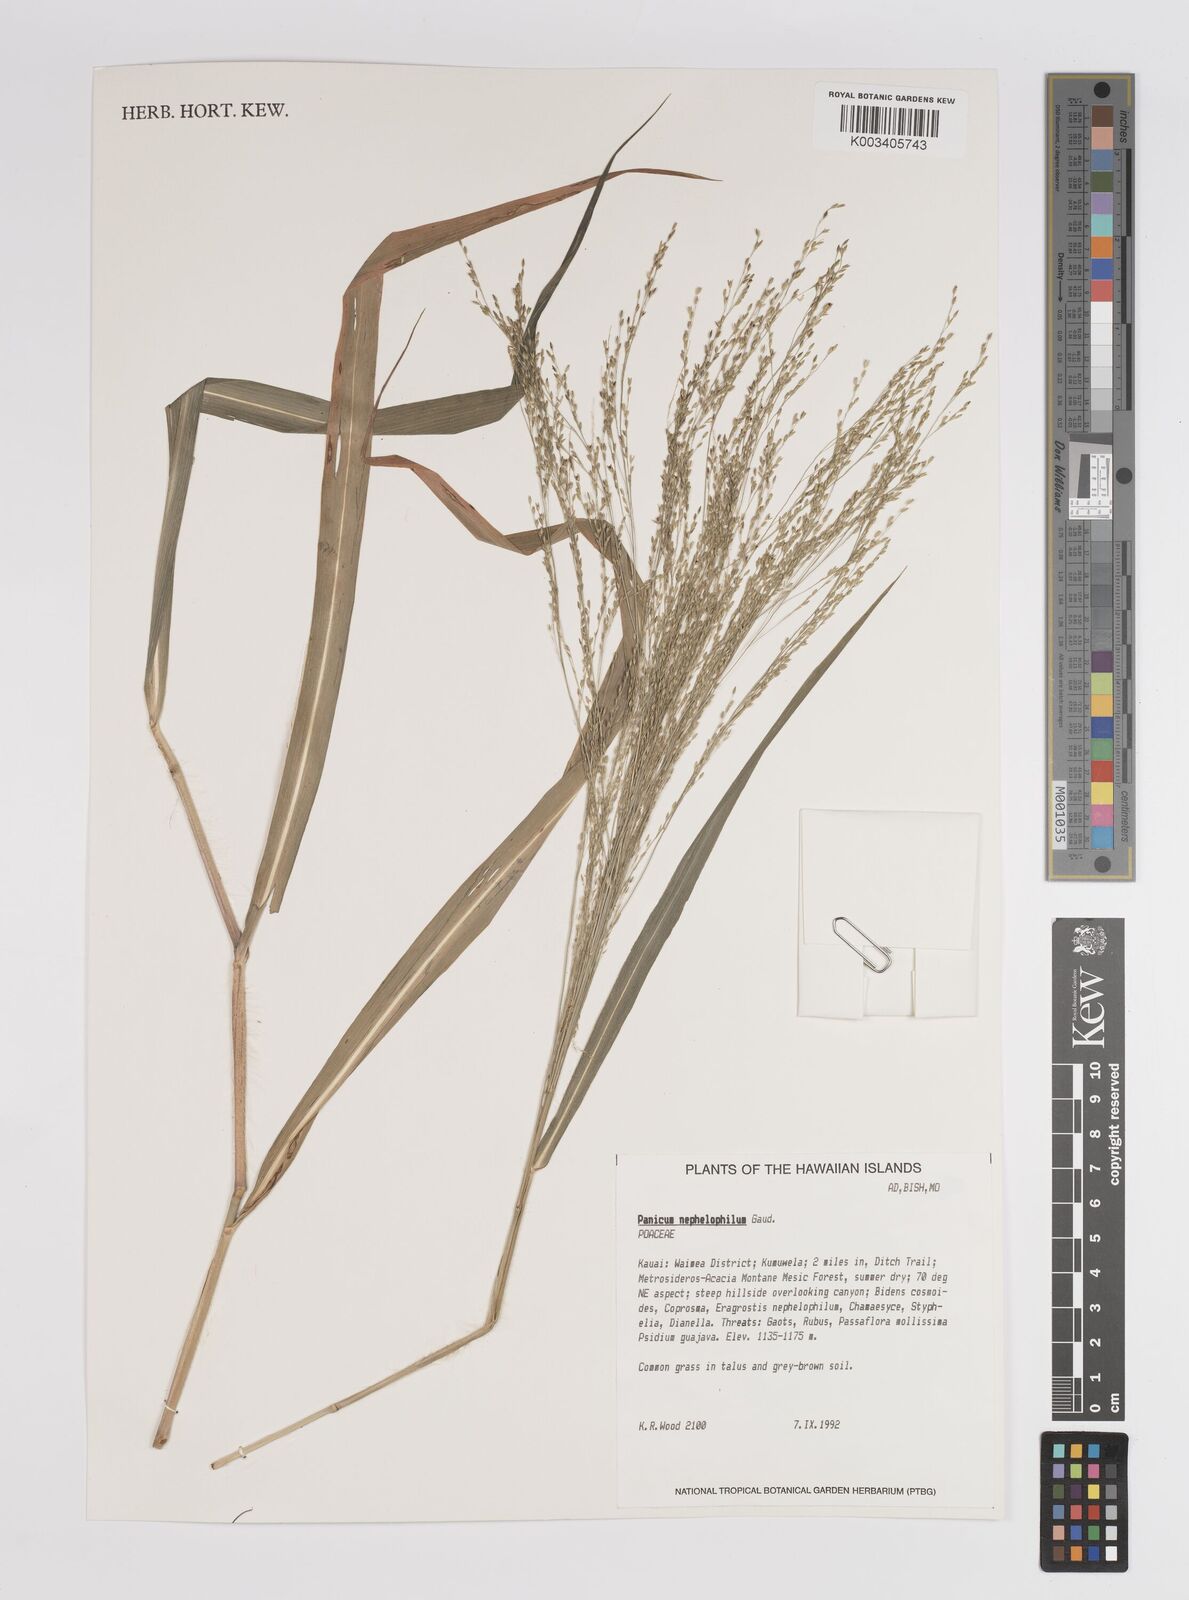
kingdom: Plantae
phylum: Tracheophyta
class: Liliopsida
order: Poales
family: Poaceae
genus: Panicum
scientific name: Panicum nephelophilum
